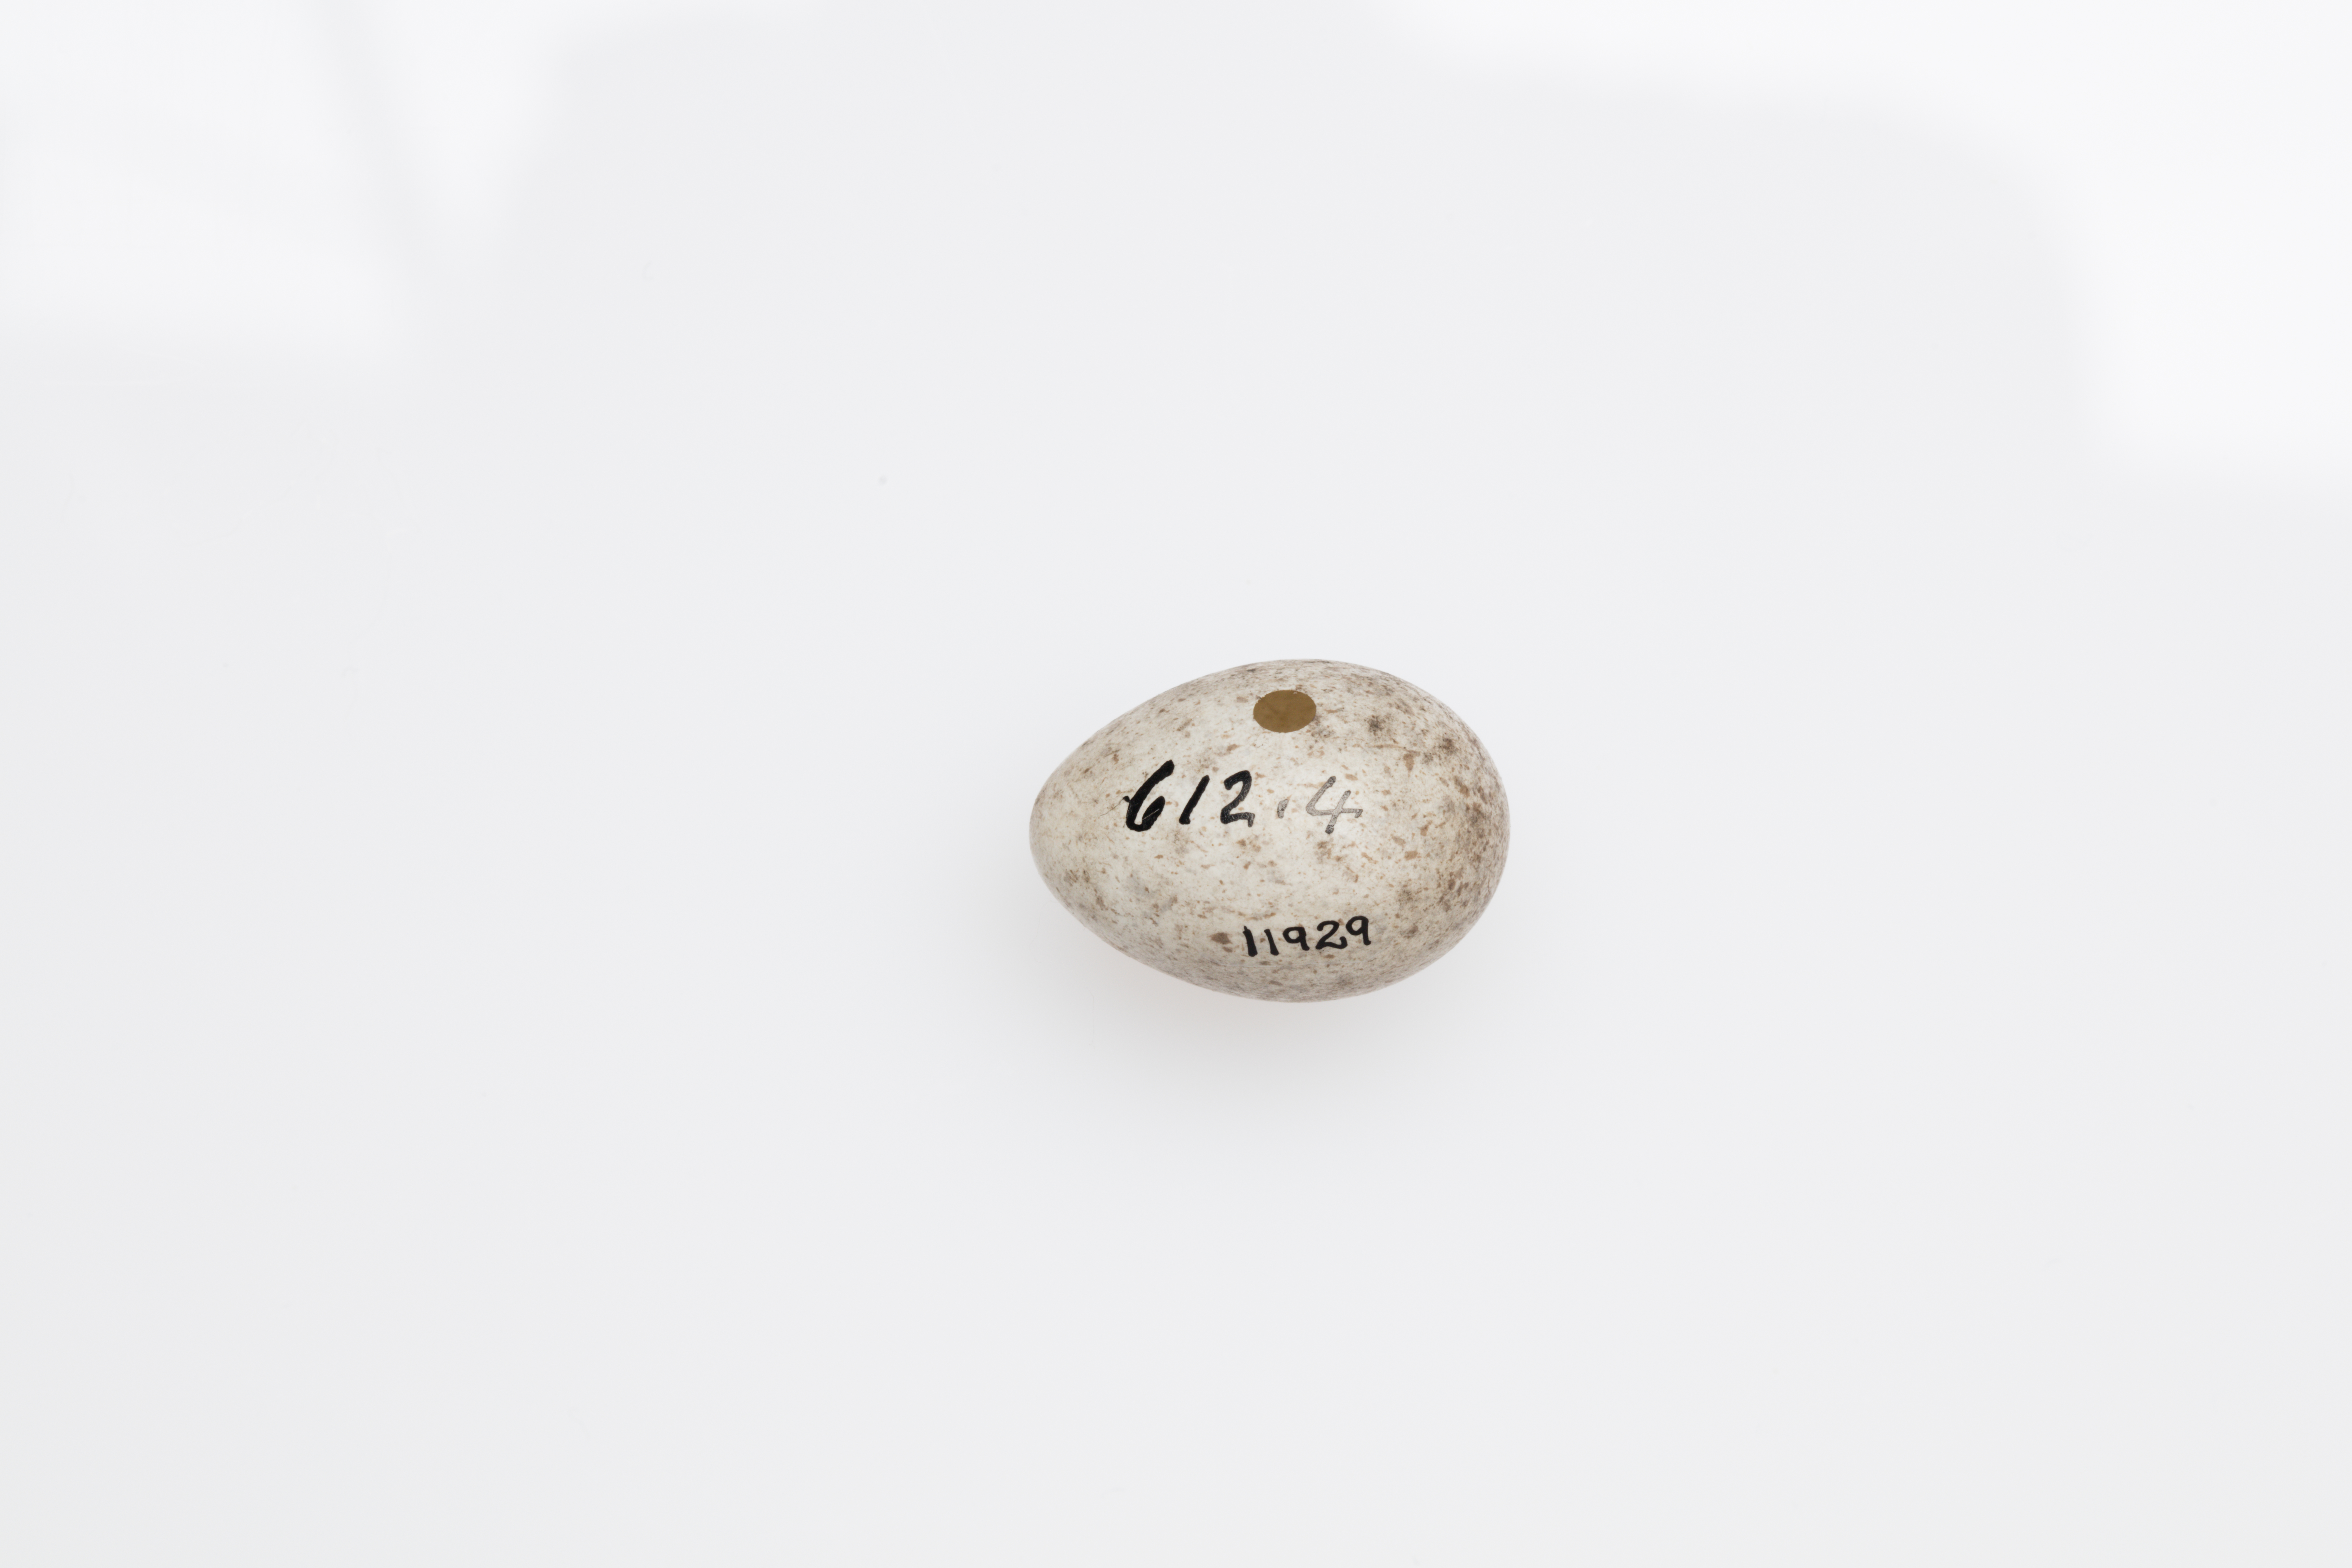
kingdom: Animalia
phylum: Chordata
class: Aves
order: Passeriformes
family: Motacillidae
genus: Motacilla
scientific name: Motacilla alba
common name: White wagtail
